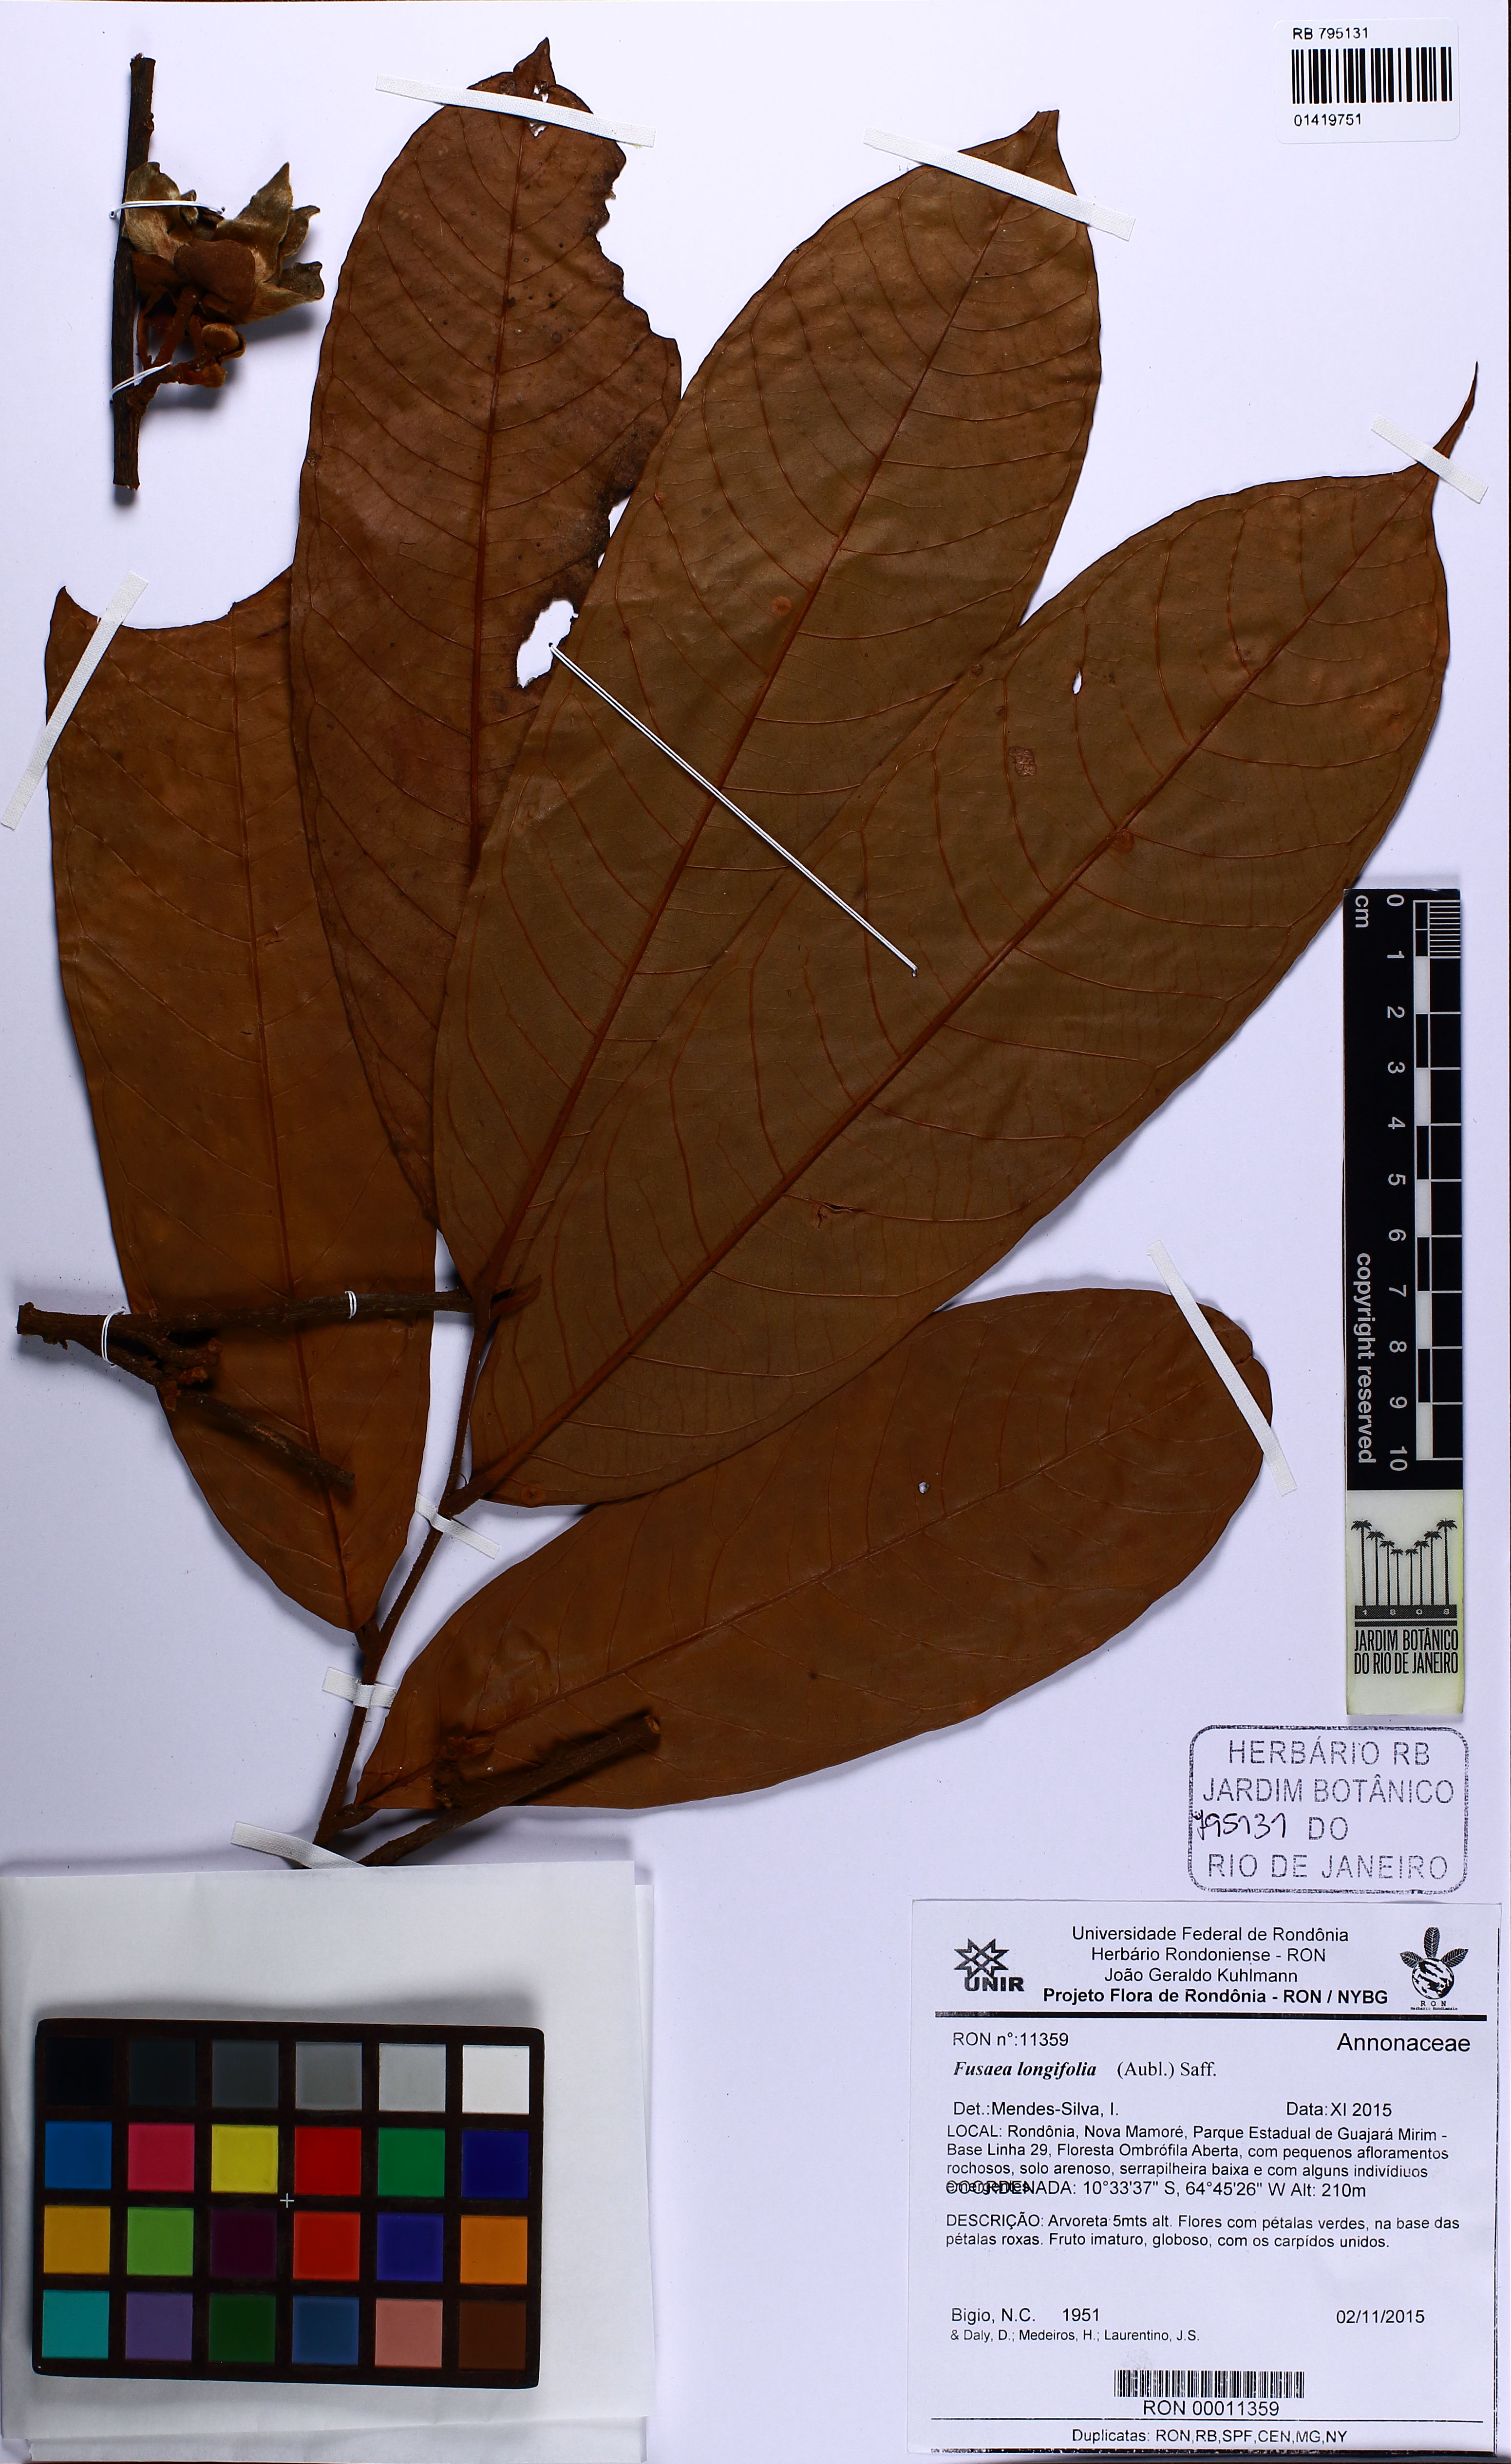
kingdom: Plantae
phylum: Tracheophyta
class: Magnoliopsida
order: Magnoliales
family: Annonaceae
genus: Fusaea
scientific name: Fusaea longifolia
